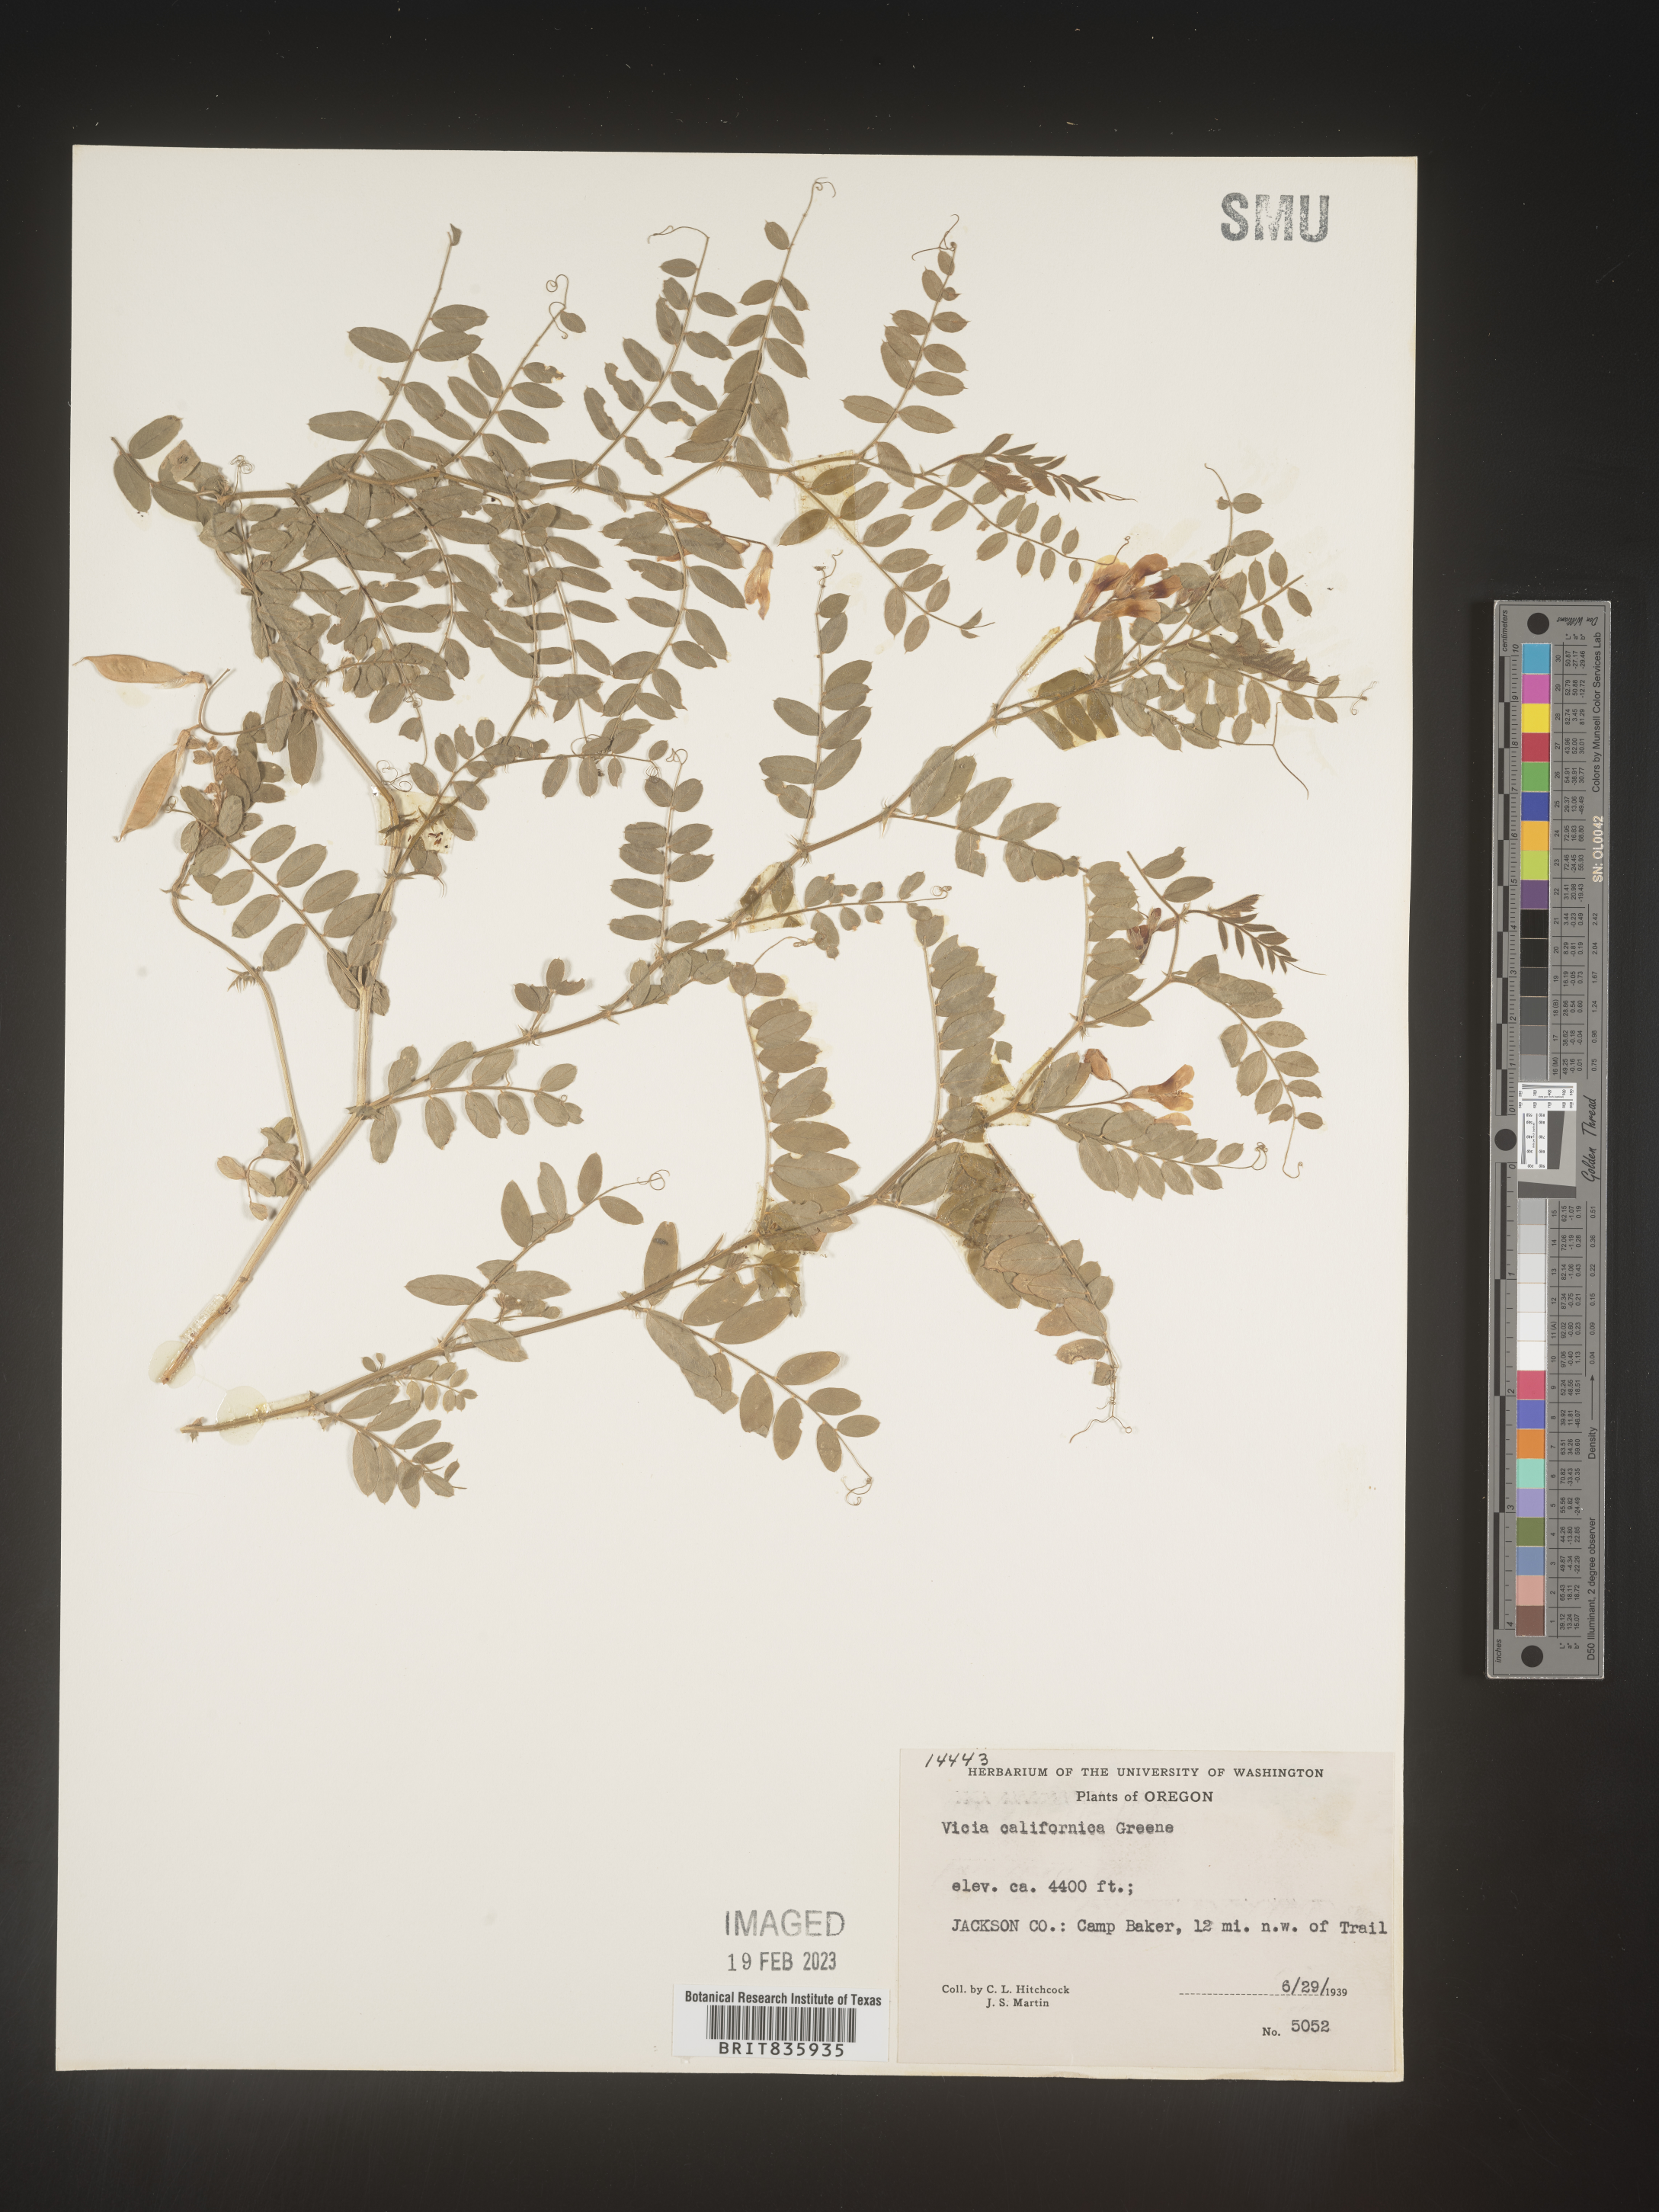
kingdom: Plantae
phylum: Tracheophyta
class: Magnoliopsida
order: Fabales
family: Fabaceae
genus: Vicia
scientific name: Vicia caroliniana
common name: Carolina vetch
